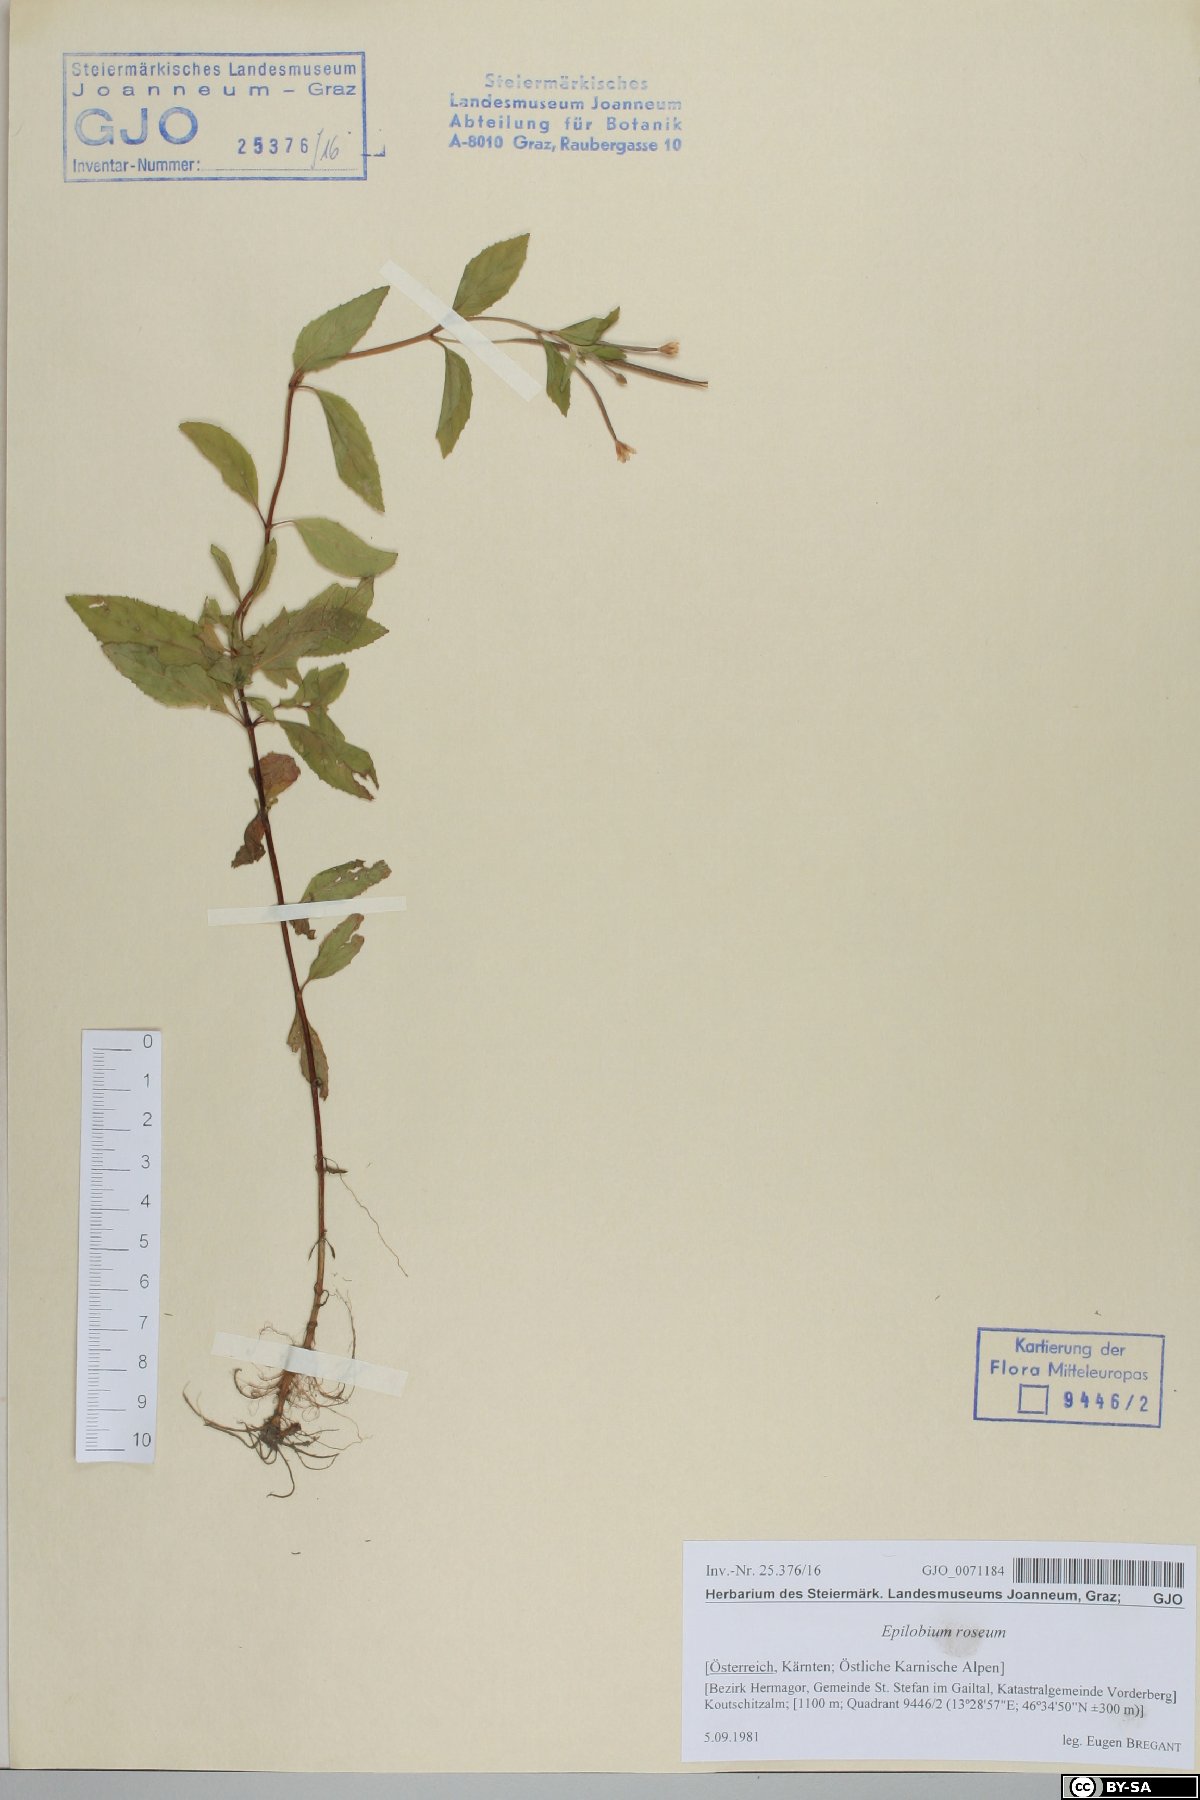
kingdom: Plantae
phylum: Tracheophyta
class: Magnoliopsida
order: Myrtales
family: Onagraceae
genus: Epilobium
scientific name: Epilobium roseum
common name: Pale willowherb
